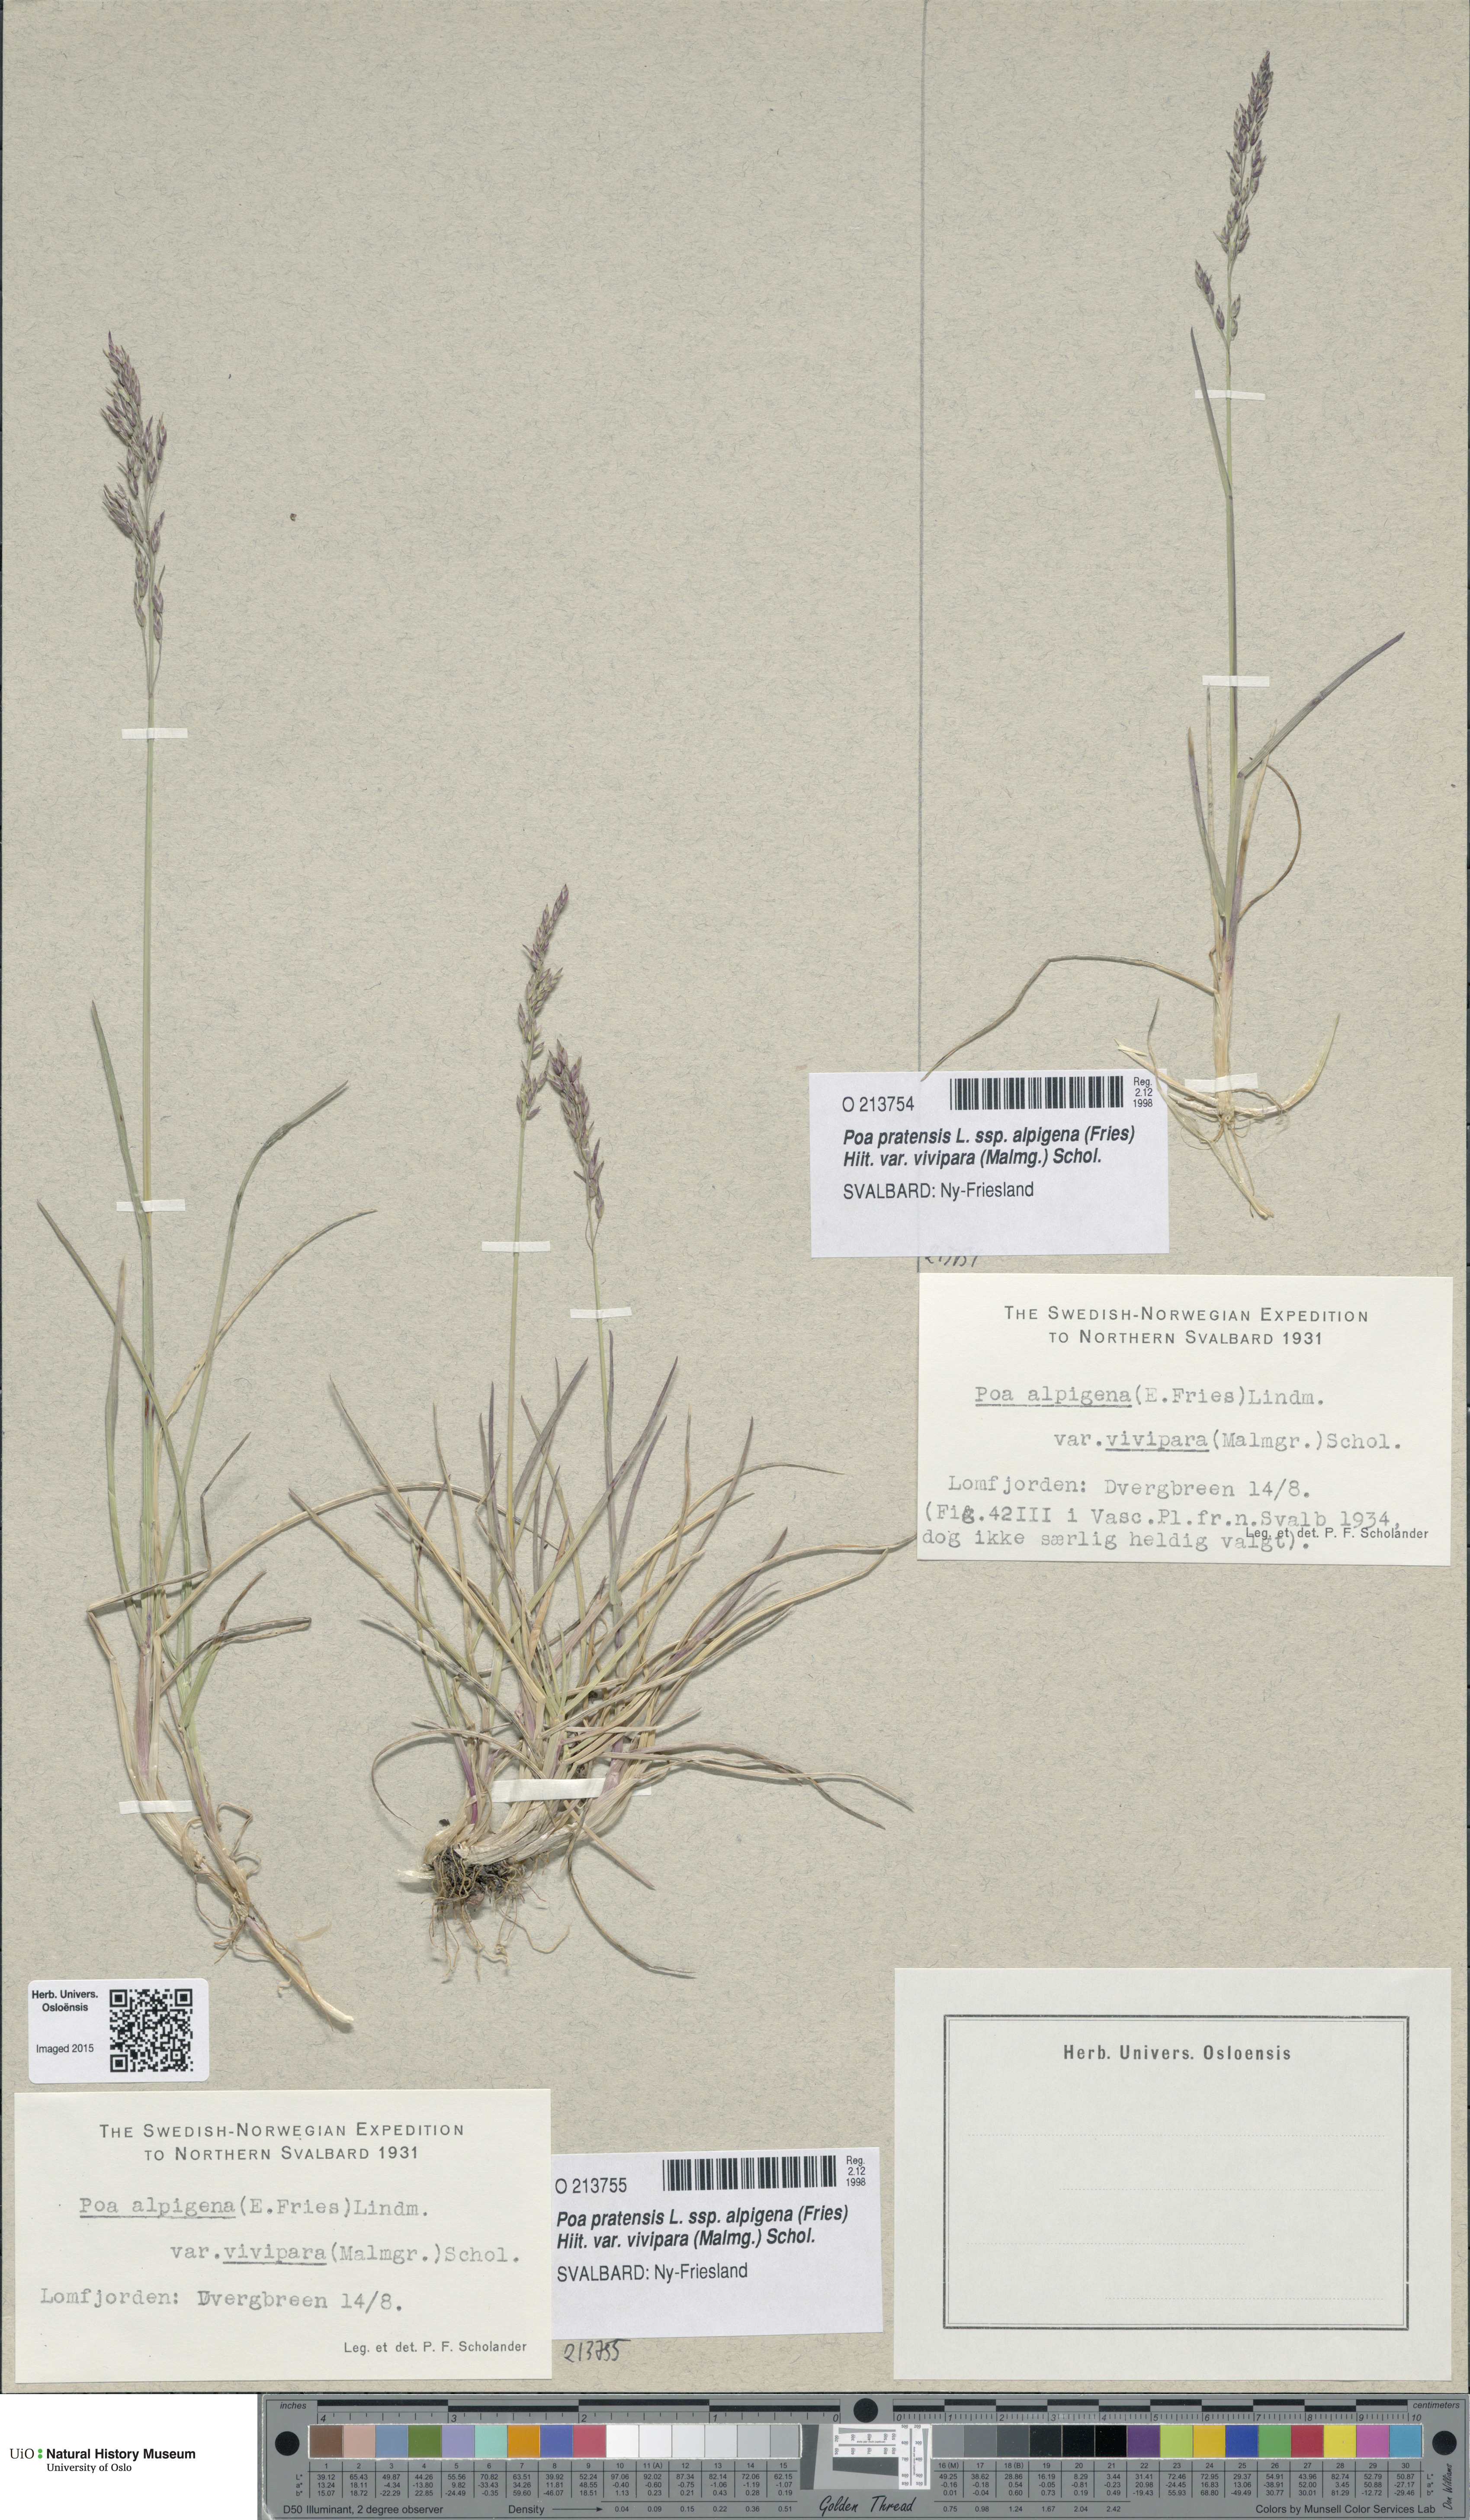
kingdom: Plantae
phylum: Tracheophyta
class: Liliopsida
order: Poales
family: Poaceae
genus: Poa
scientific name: Poa arctica
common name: Arctic bluegrass
